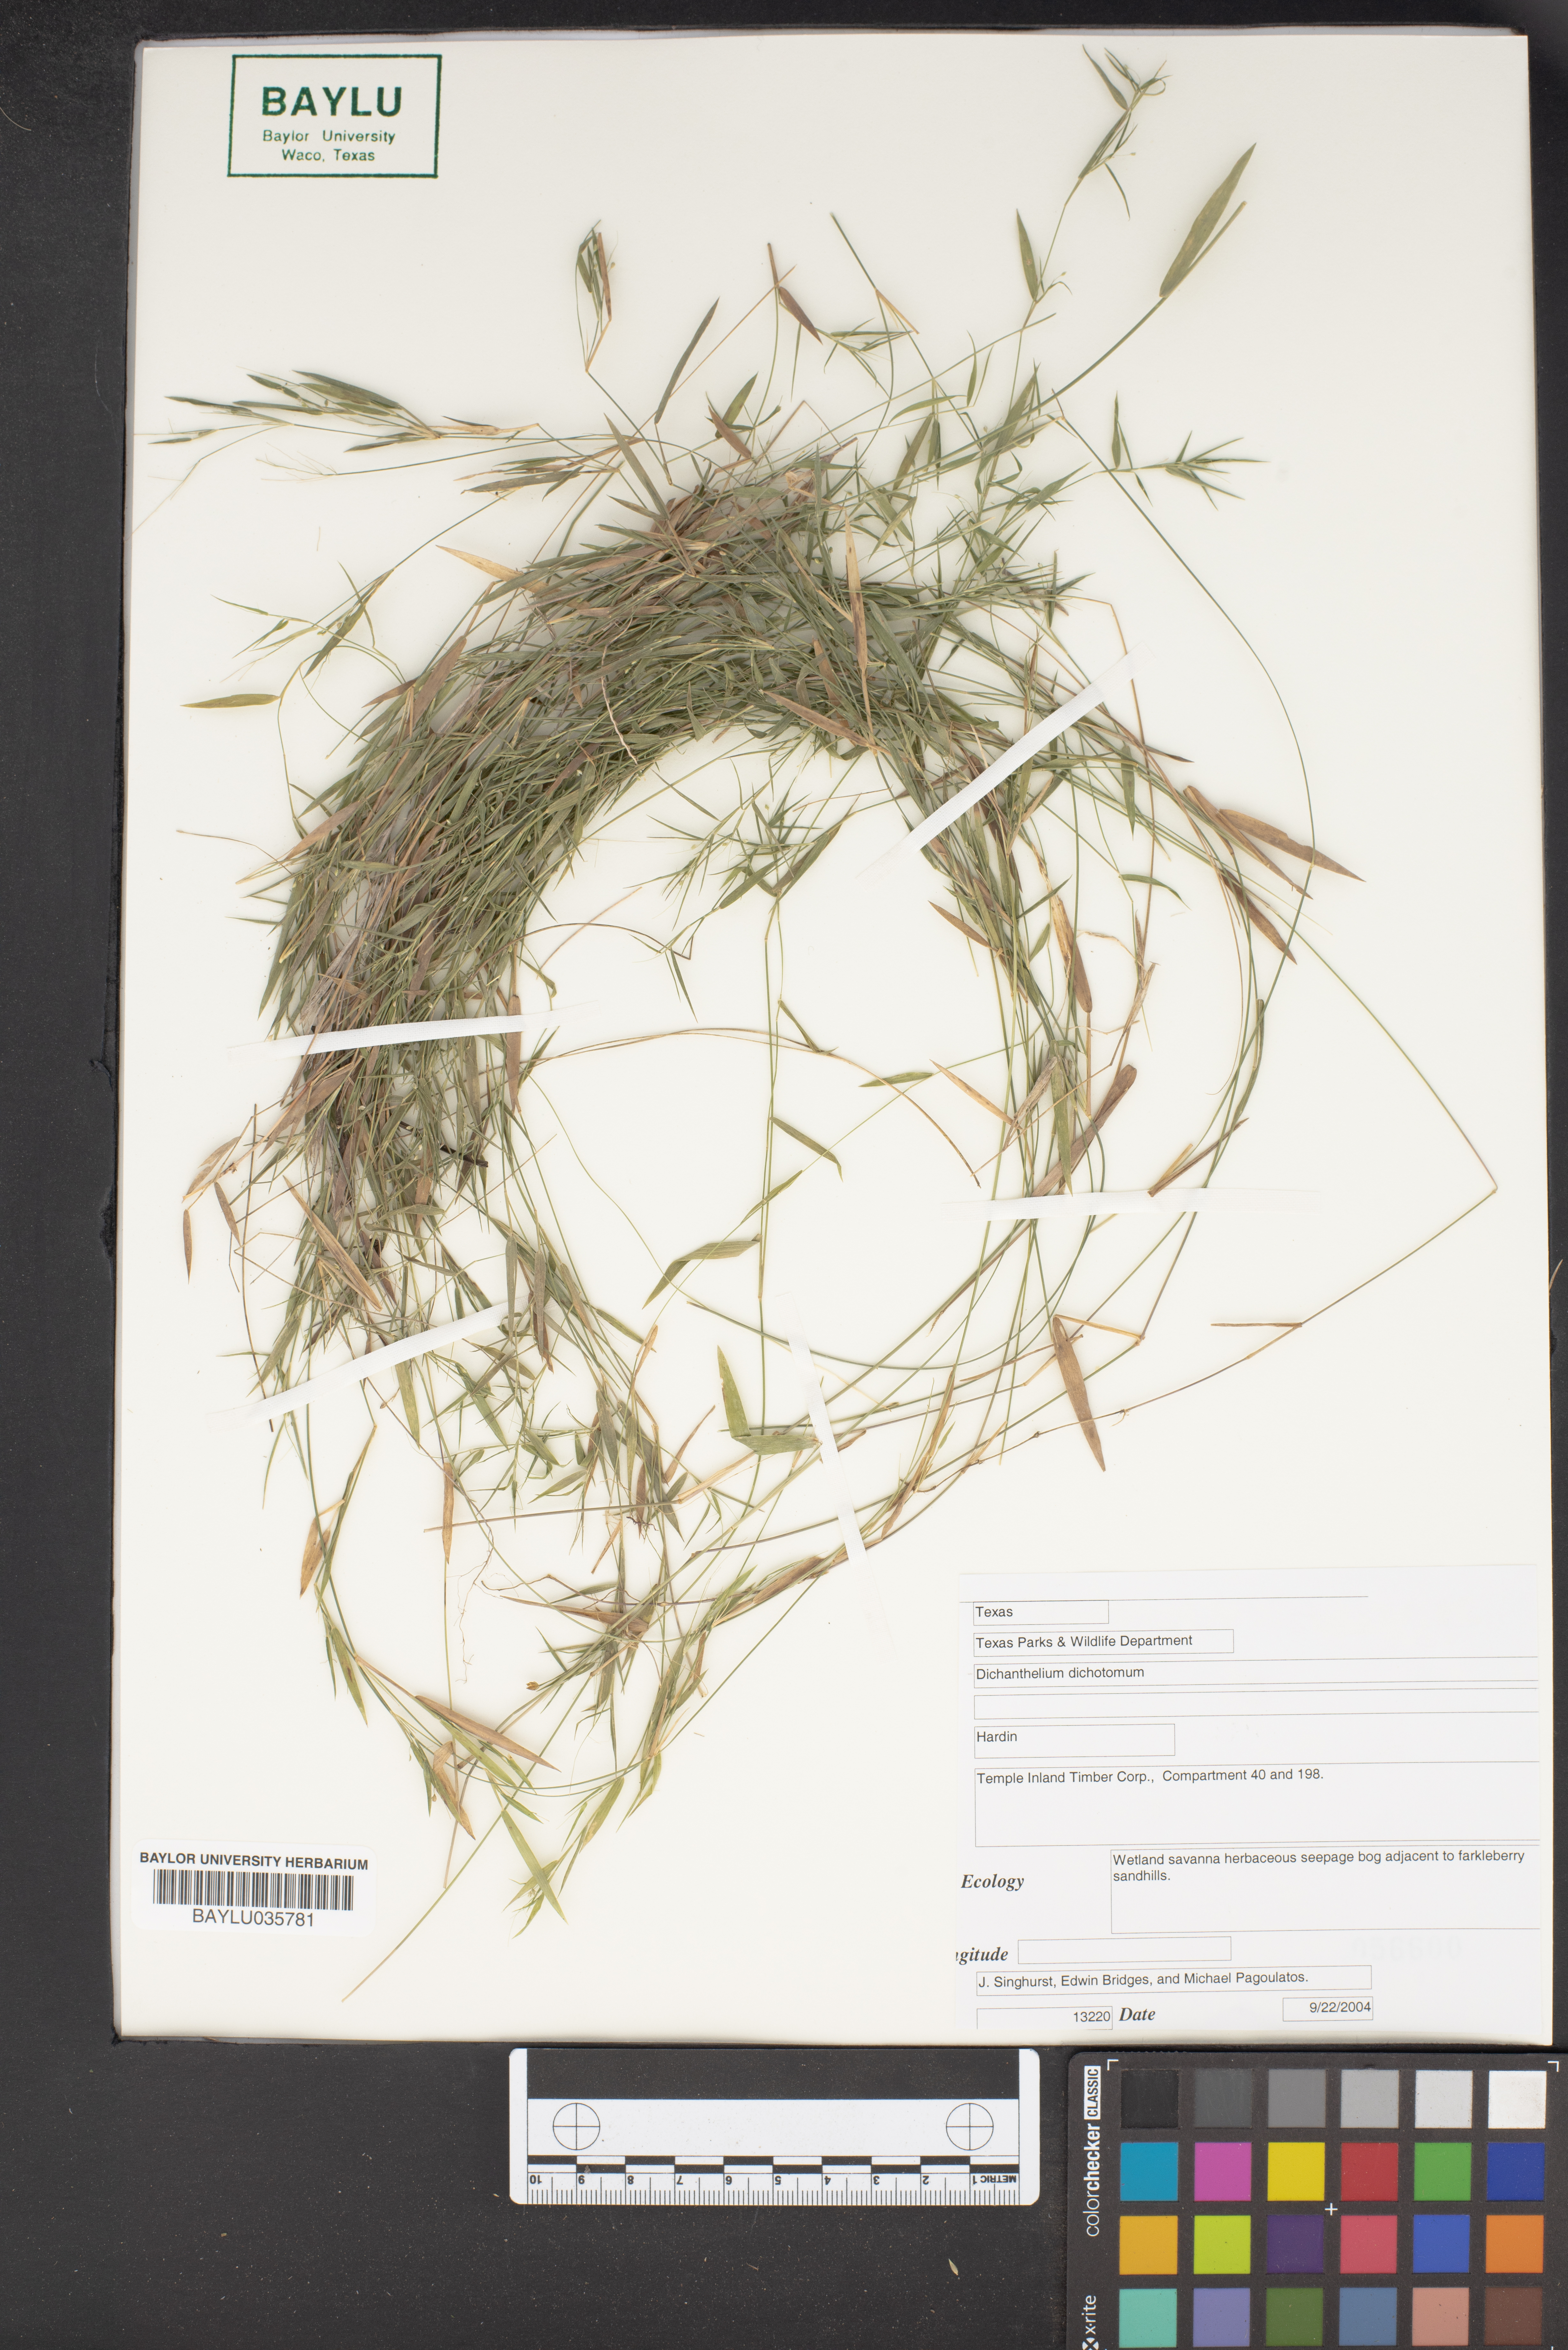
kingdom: Plantae
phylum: Tracheophyta
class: Liliopsida
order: Poales
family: Poaceae
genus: Dichanthelium
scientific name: Dichanthelium dichotomum
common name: Cypress panicgrass
